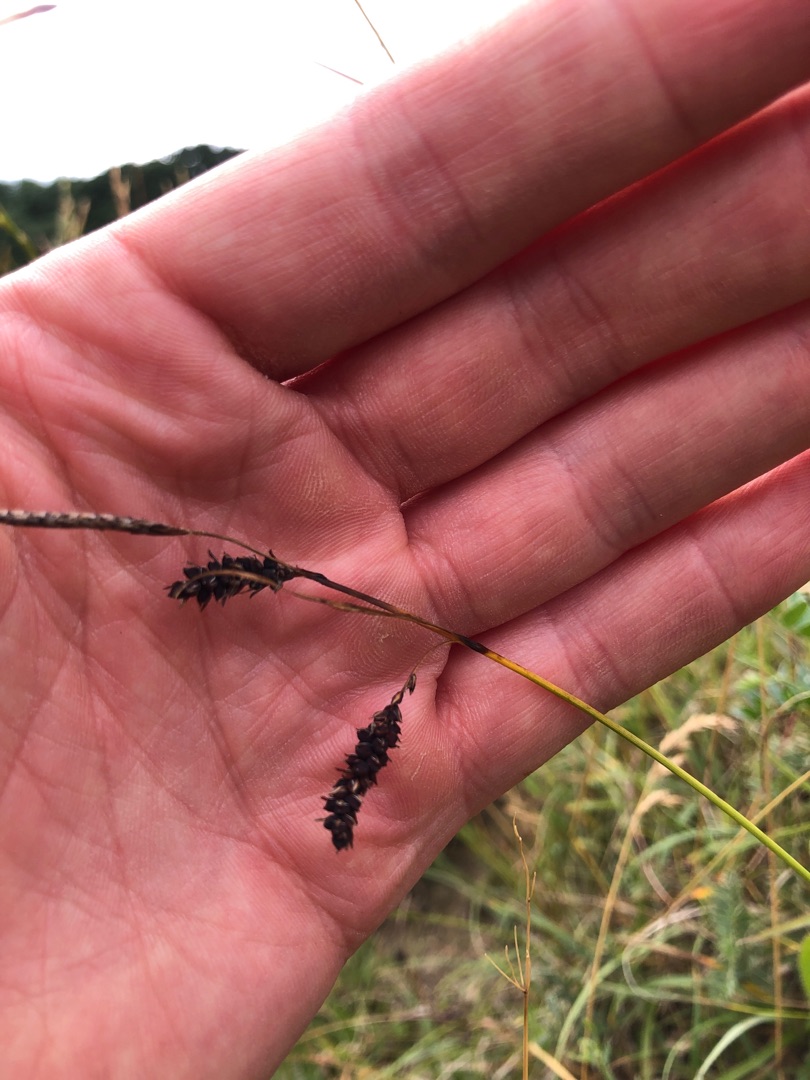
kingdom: Plantae
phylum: Tracheophyta
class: Liliopsida
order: Poales
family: Cyperaceae
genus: Carex
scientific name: Carex flacca
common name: Blågrøn star
